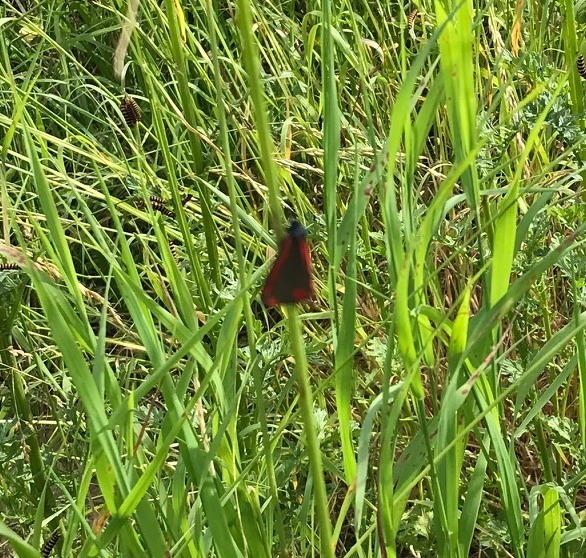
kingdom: Animalia
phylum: Arthropoda
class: Insecta
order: Lepidoptera
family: Erebidae
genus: Tyria
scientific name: Tyria jacobaeae
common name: Blodplet
